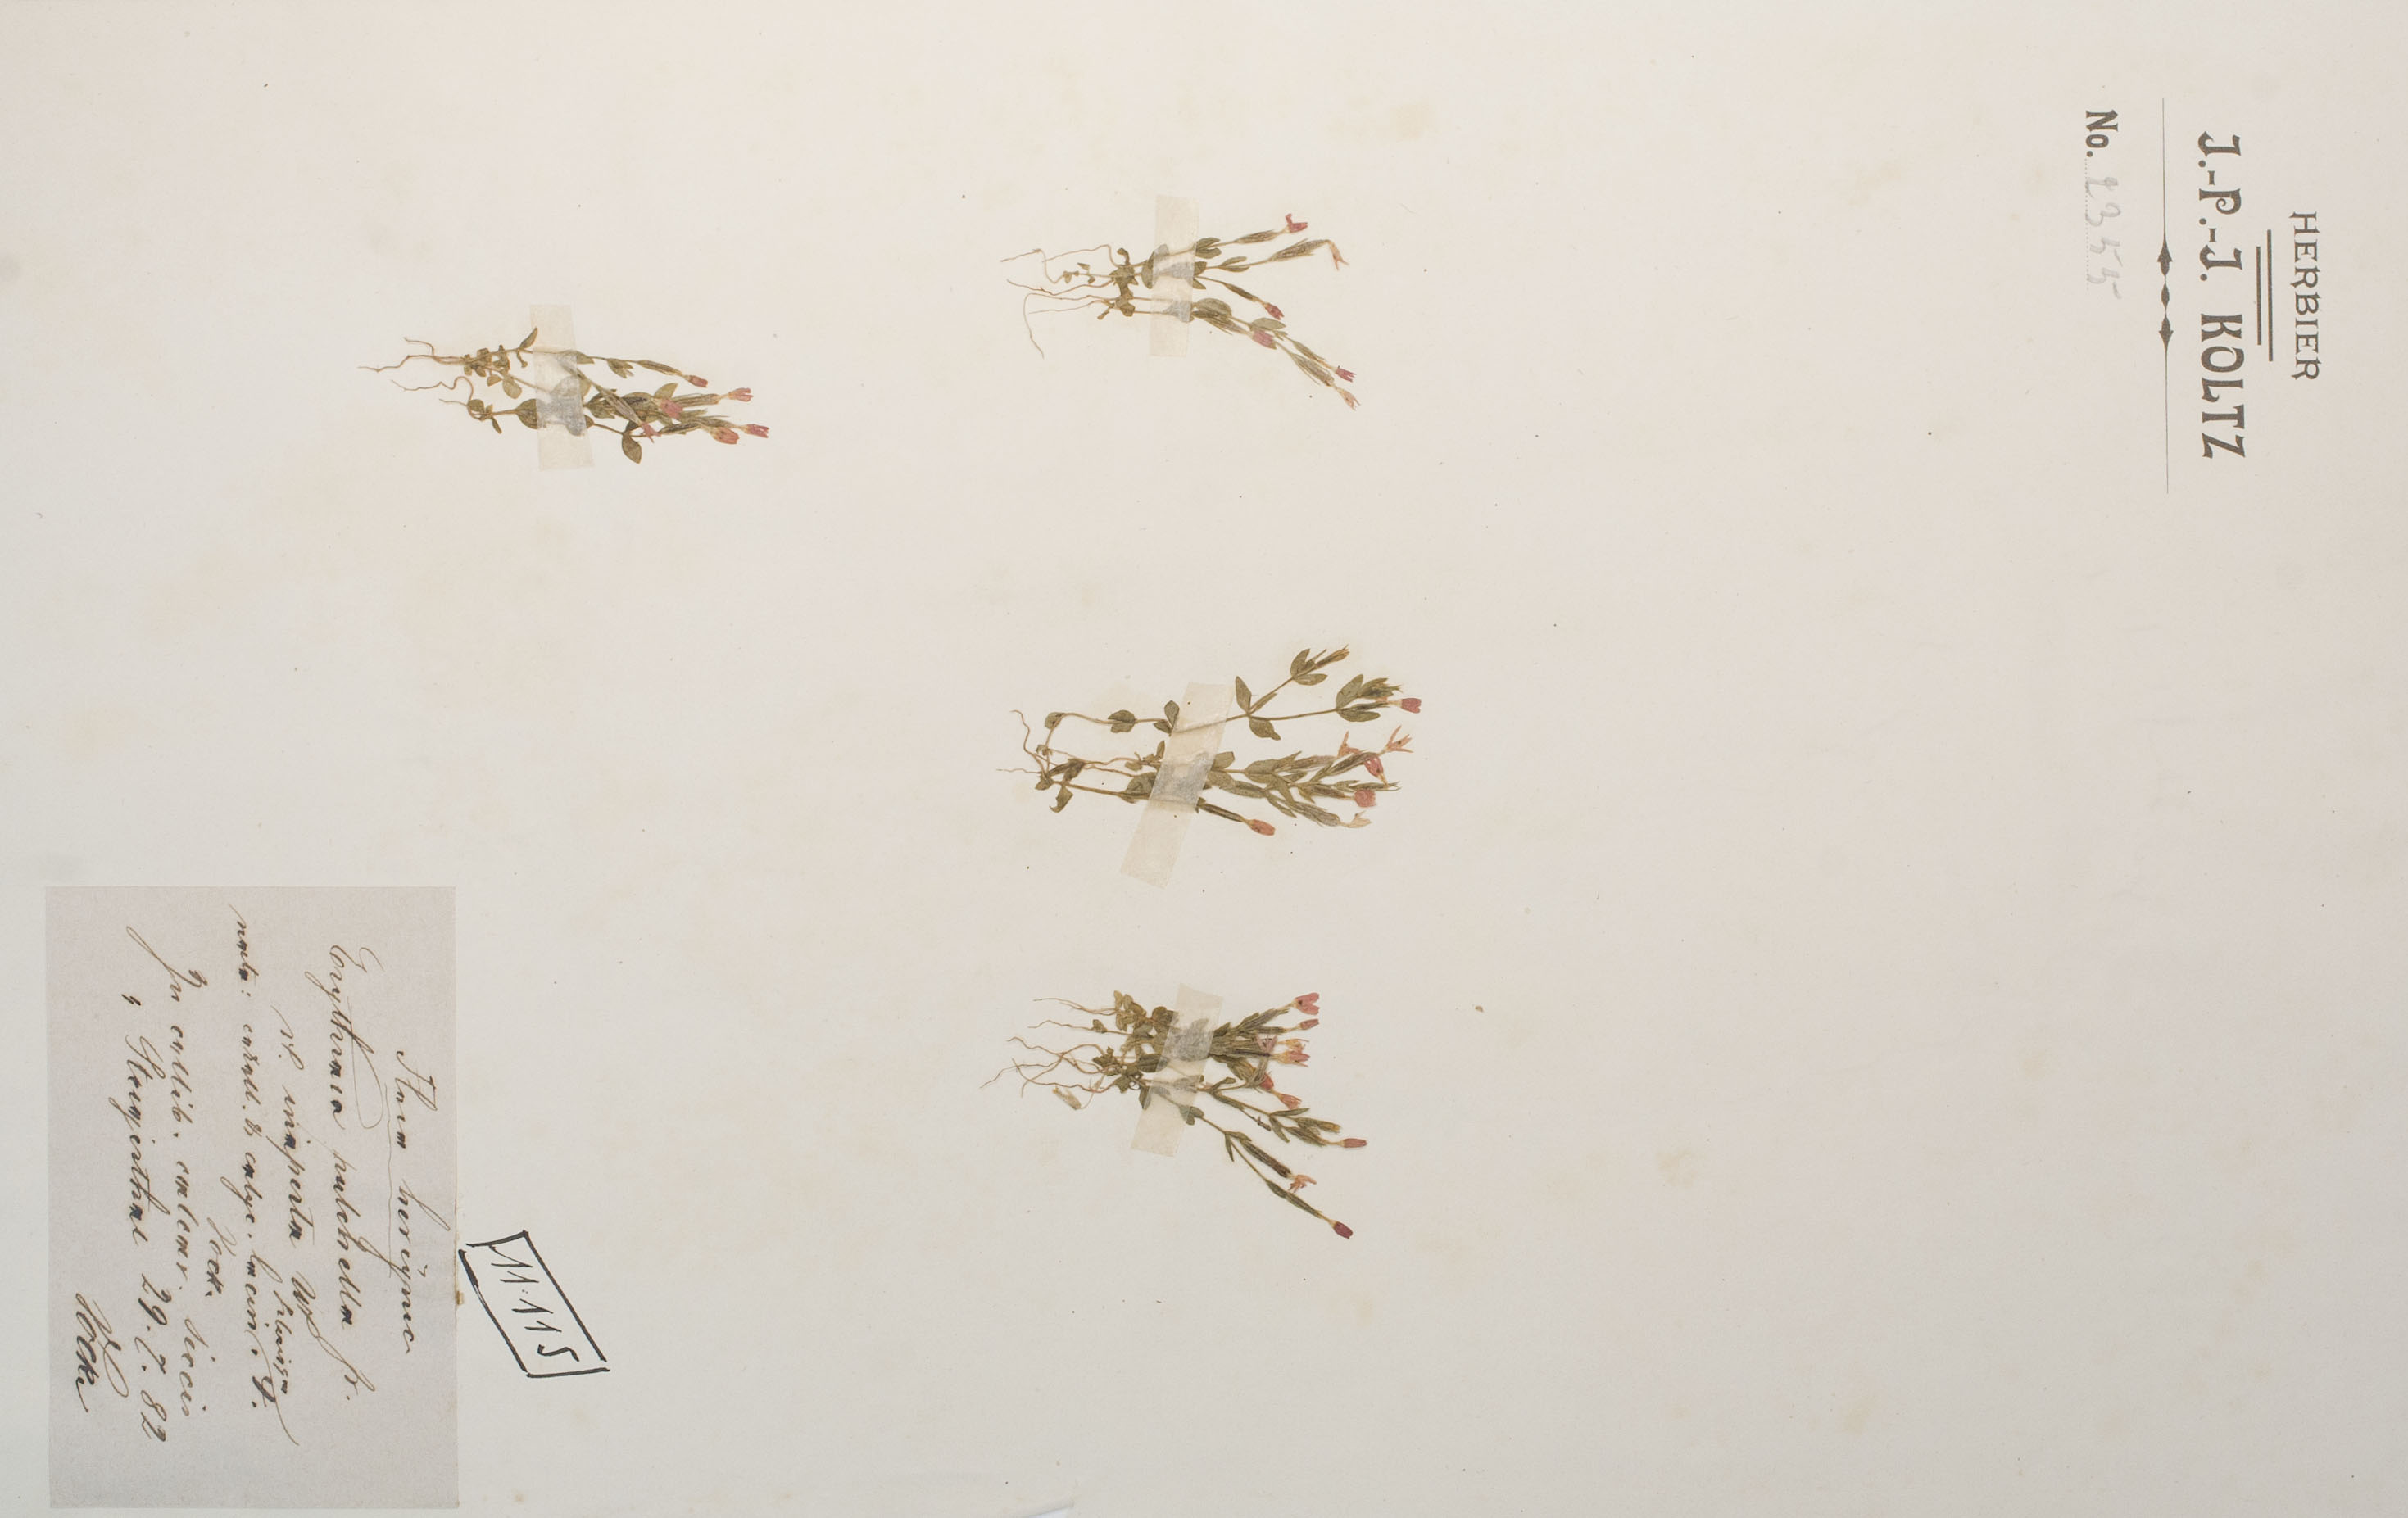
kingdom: Plantae
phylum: Tracheophyta
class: Magnoliopsida
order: Gentianales
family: Gentianaceae
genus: Centaurium
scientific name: Centaurium pulchellum
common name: Lesser centaury
